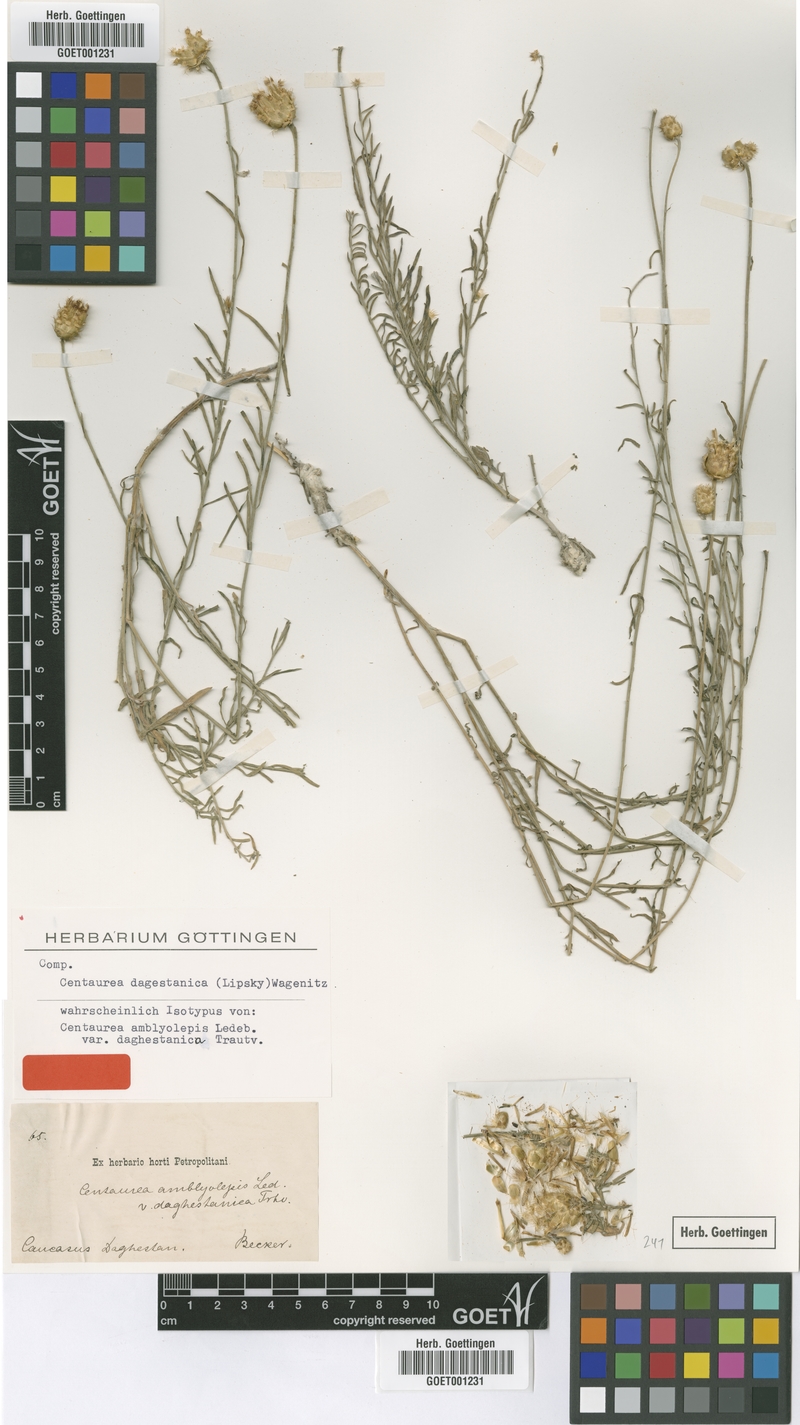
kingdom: Plantae
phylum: Tracheophyta
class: Magnoliopsida
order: Asterales
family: Asteraceae
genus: Psephellus
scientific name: Psephellus czirkejensis
